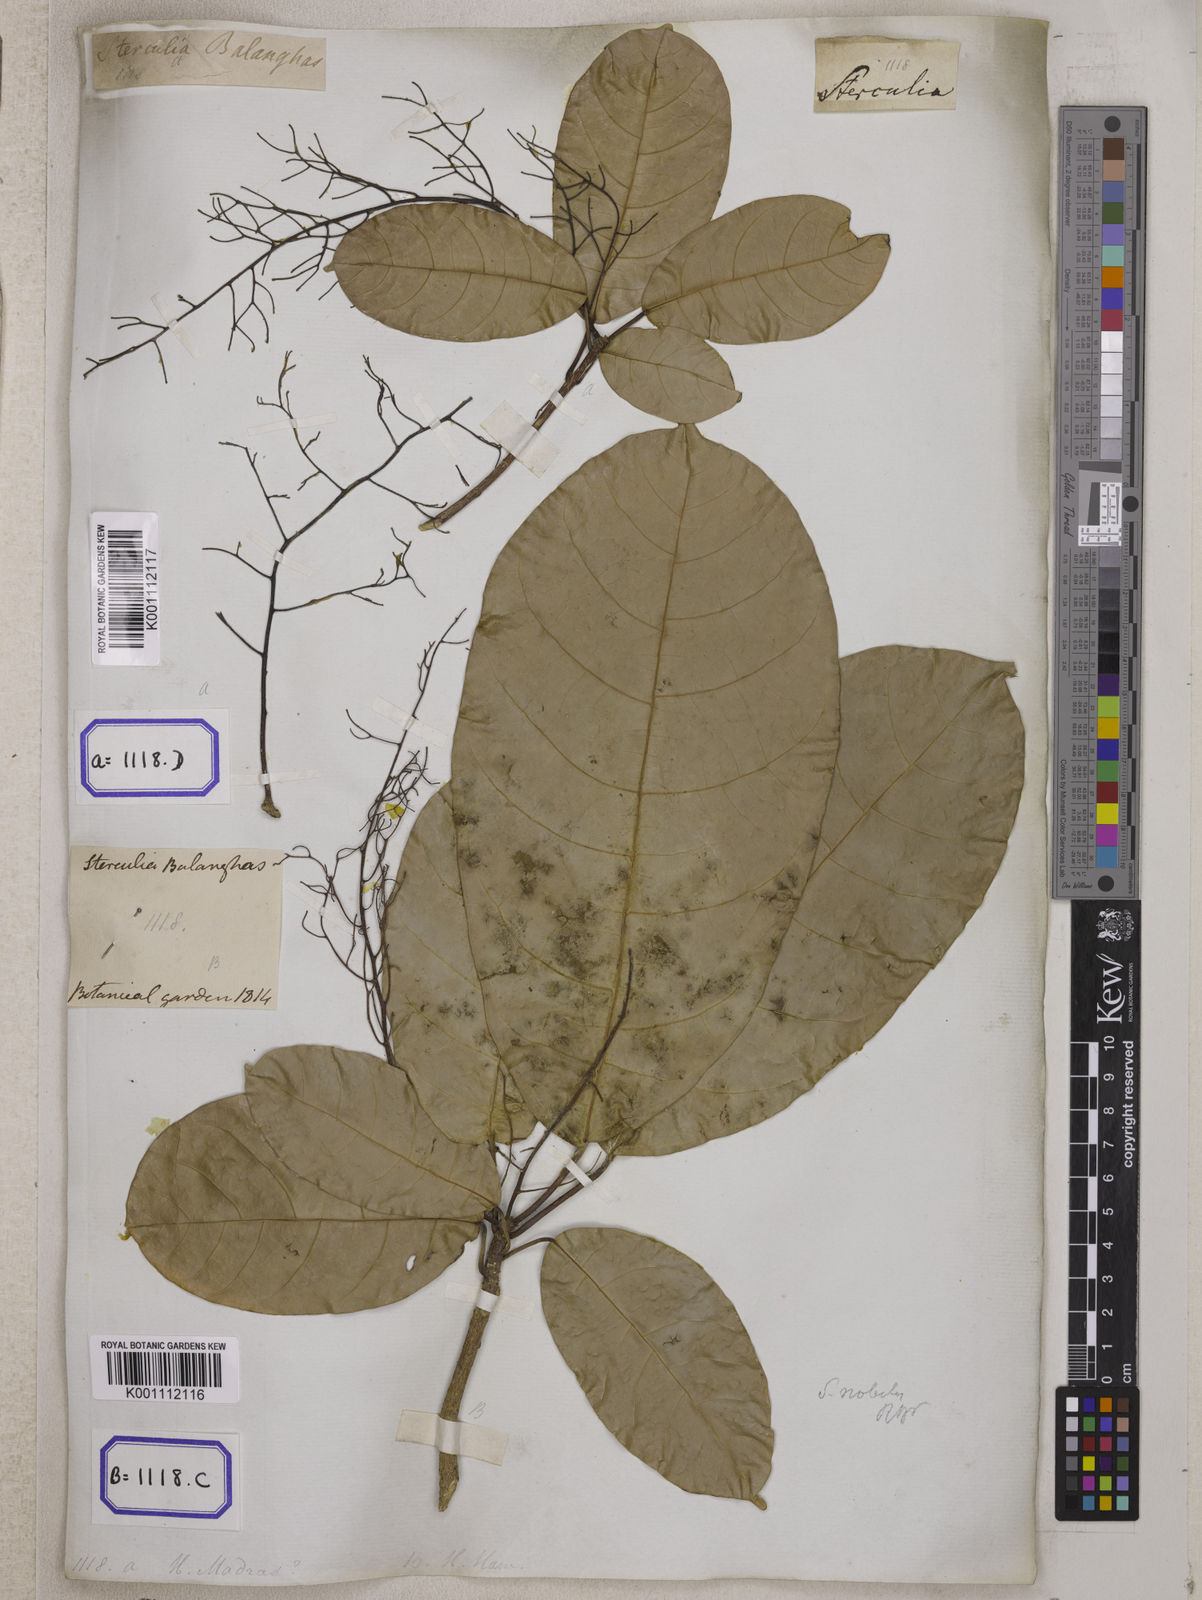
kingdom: Plantae
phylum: Tracheophyta
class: Magnoliopsida
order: Malvales
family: Malvaceae
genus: Sterculia
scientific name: Sterculia balanghas
